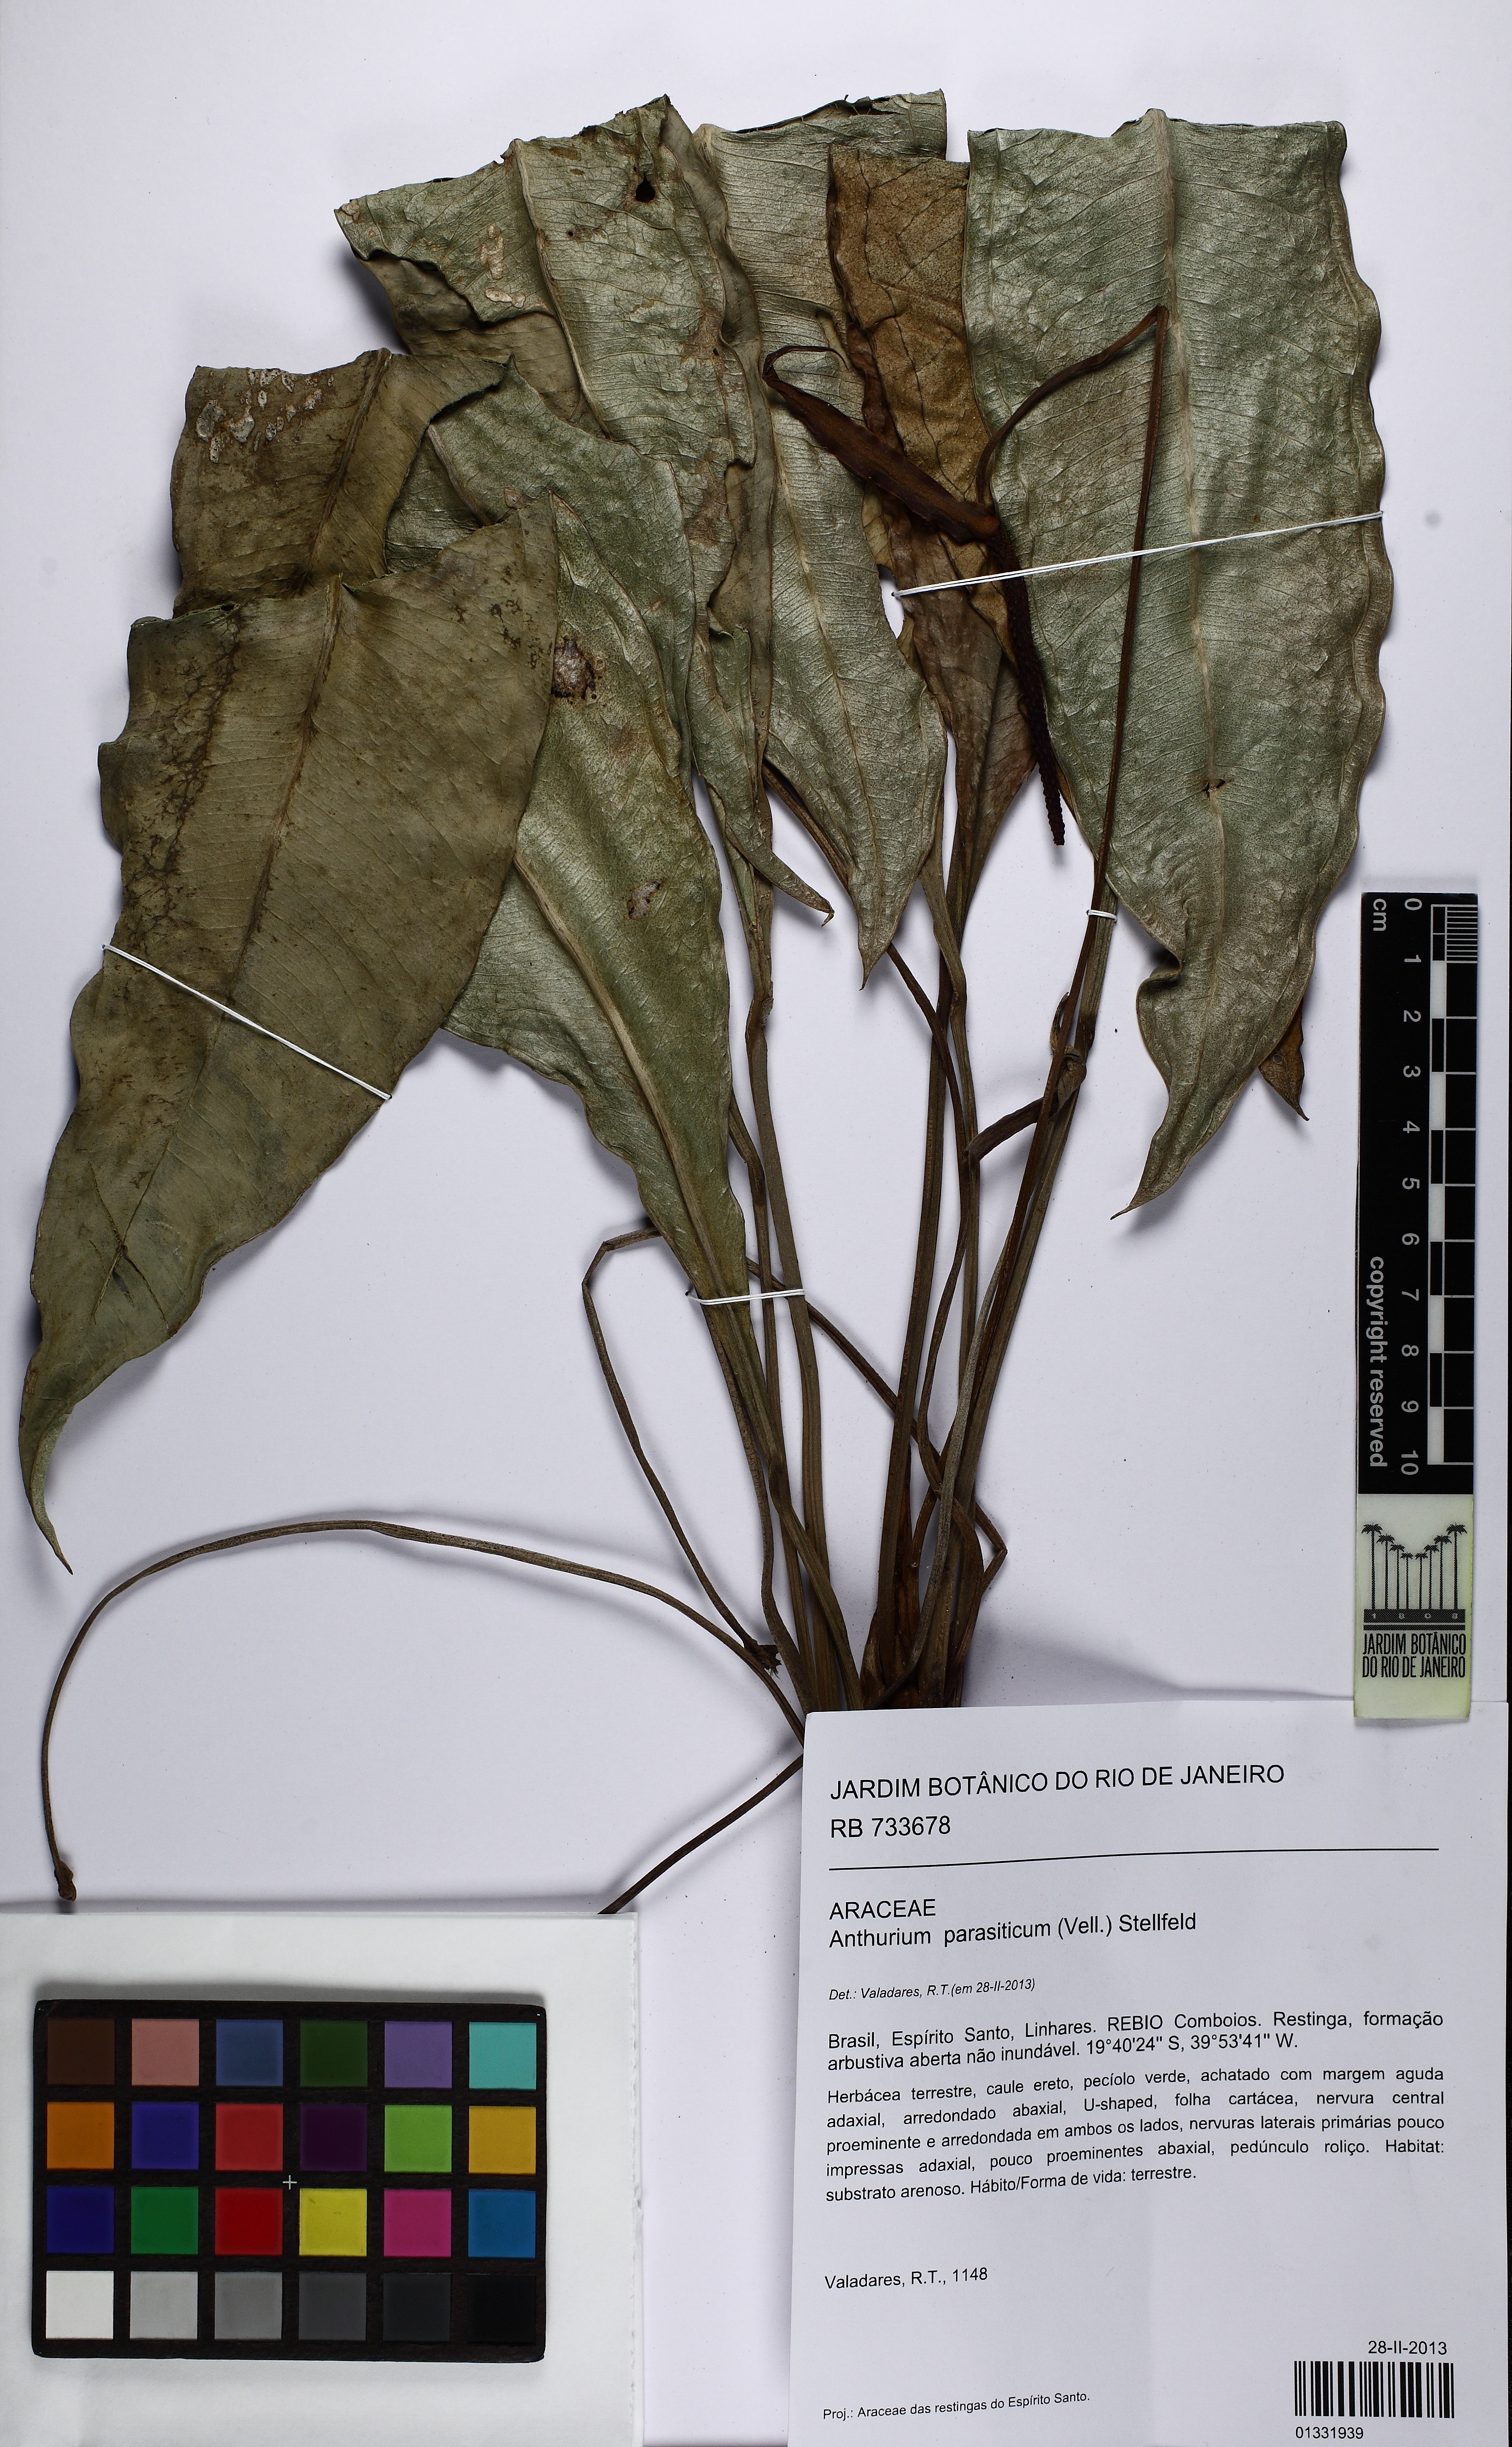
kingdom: Plantae
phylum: Tracheophyta
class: Liliopsida
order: Alismatales
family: Araceae
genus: Anthurium
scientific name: Anthurium parasiticum
